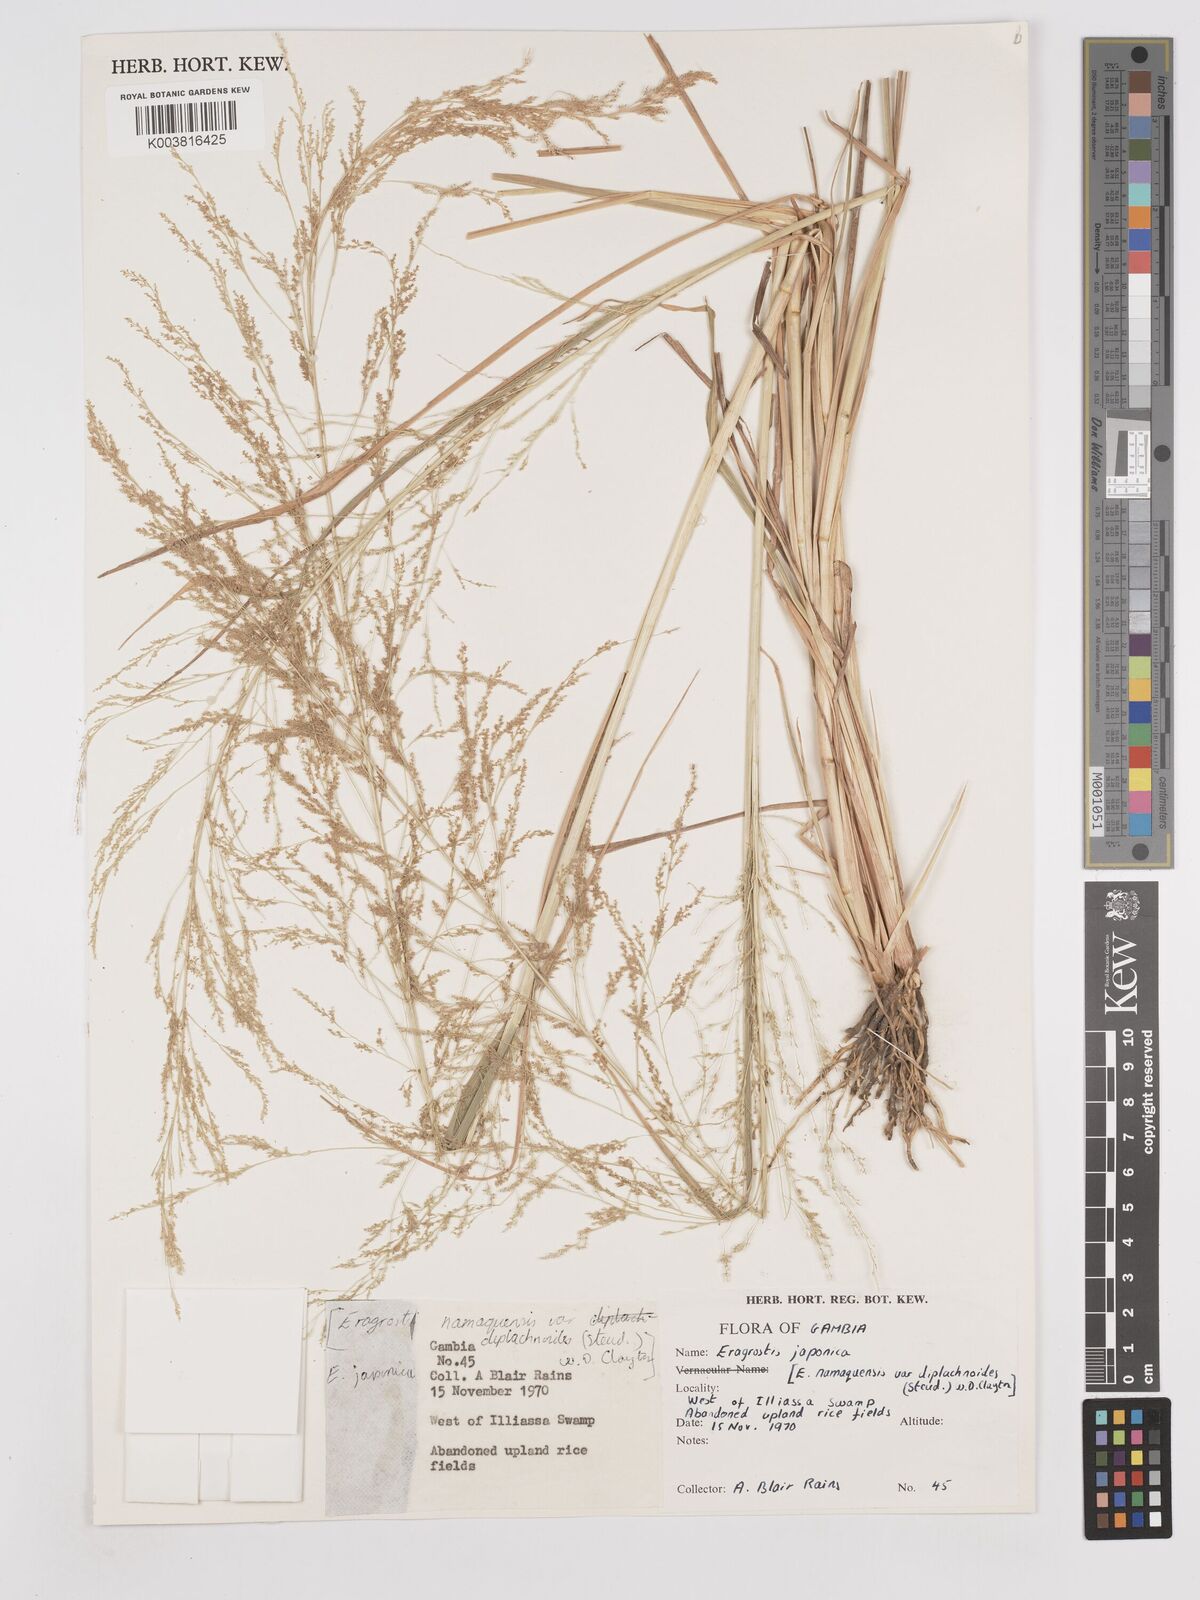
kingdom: Plantae
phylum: Tracheophyta
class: Liliopsida
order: Poales
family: Poaceae
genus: Eragrostis
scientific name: Eragrostis japonica
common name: Pond lovegrass
